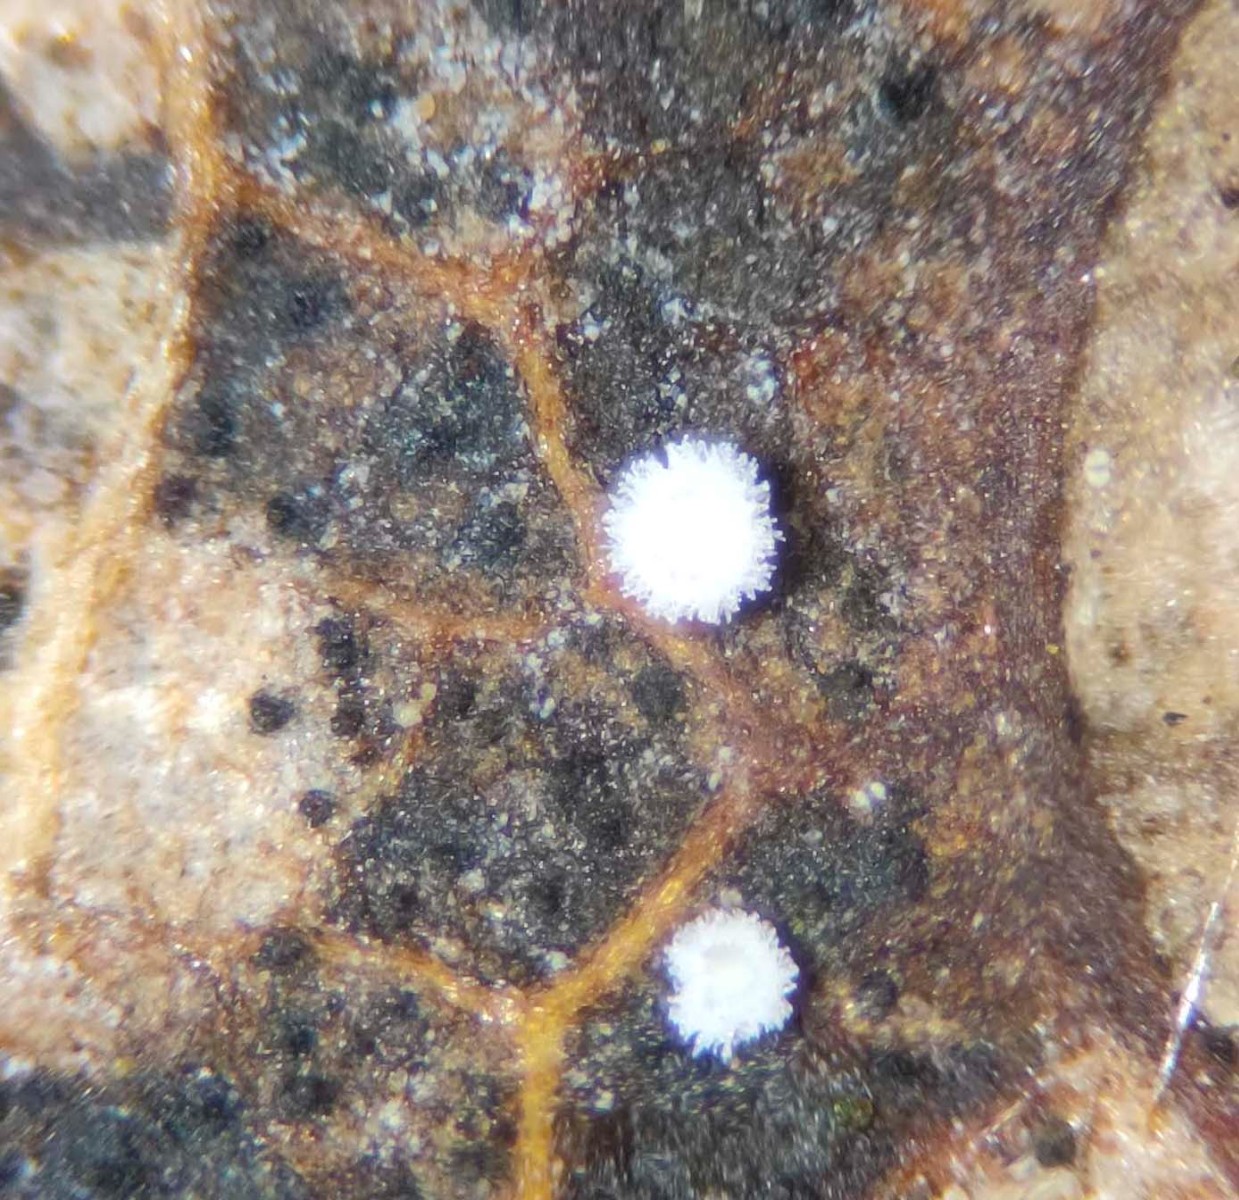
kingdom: Fungi
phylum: Ascomycota
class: Leotiomycetes
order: Helotiales
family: Lachnaceae
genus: Lachnum
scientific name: Lachnum rhytismatis
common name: blad-frynseskive
